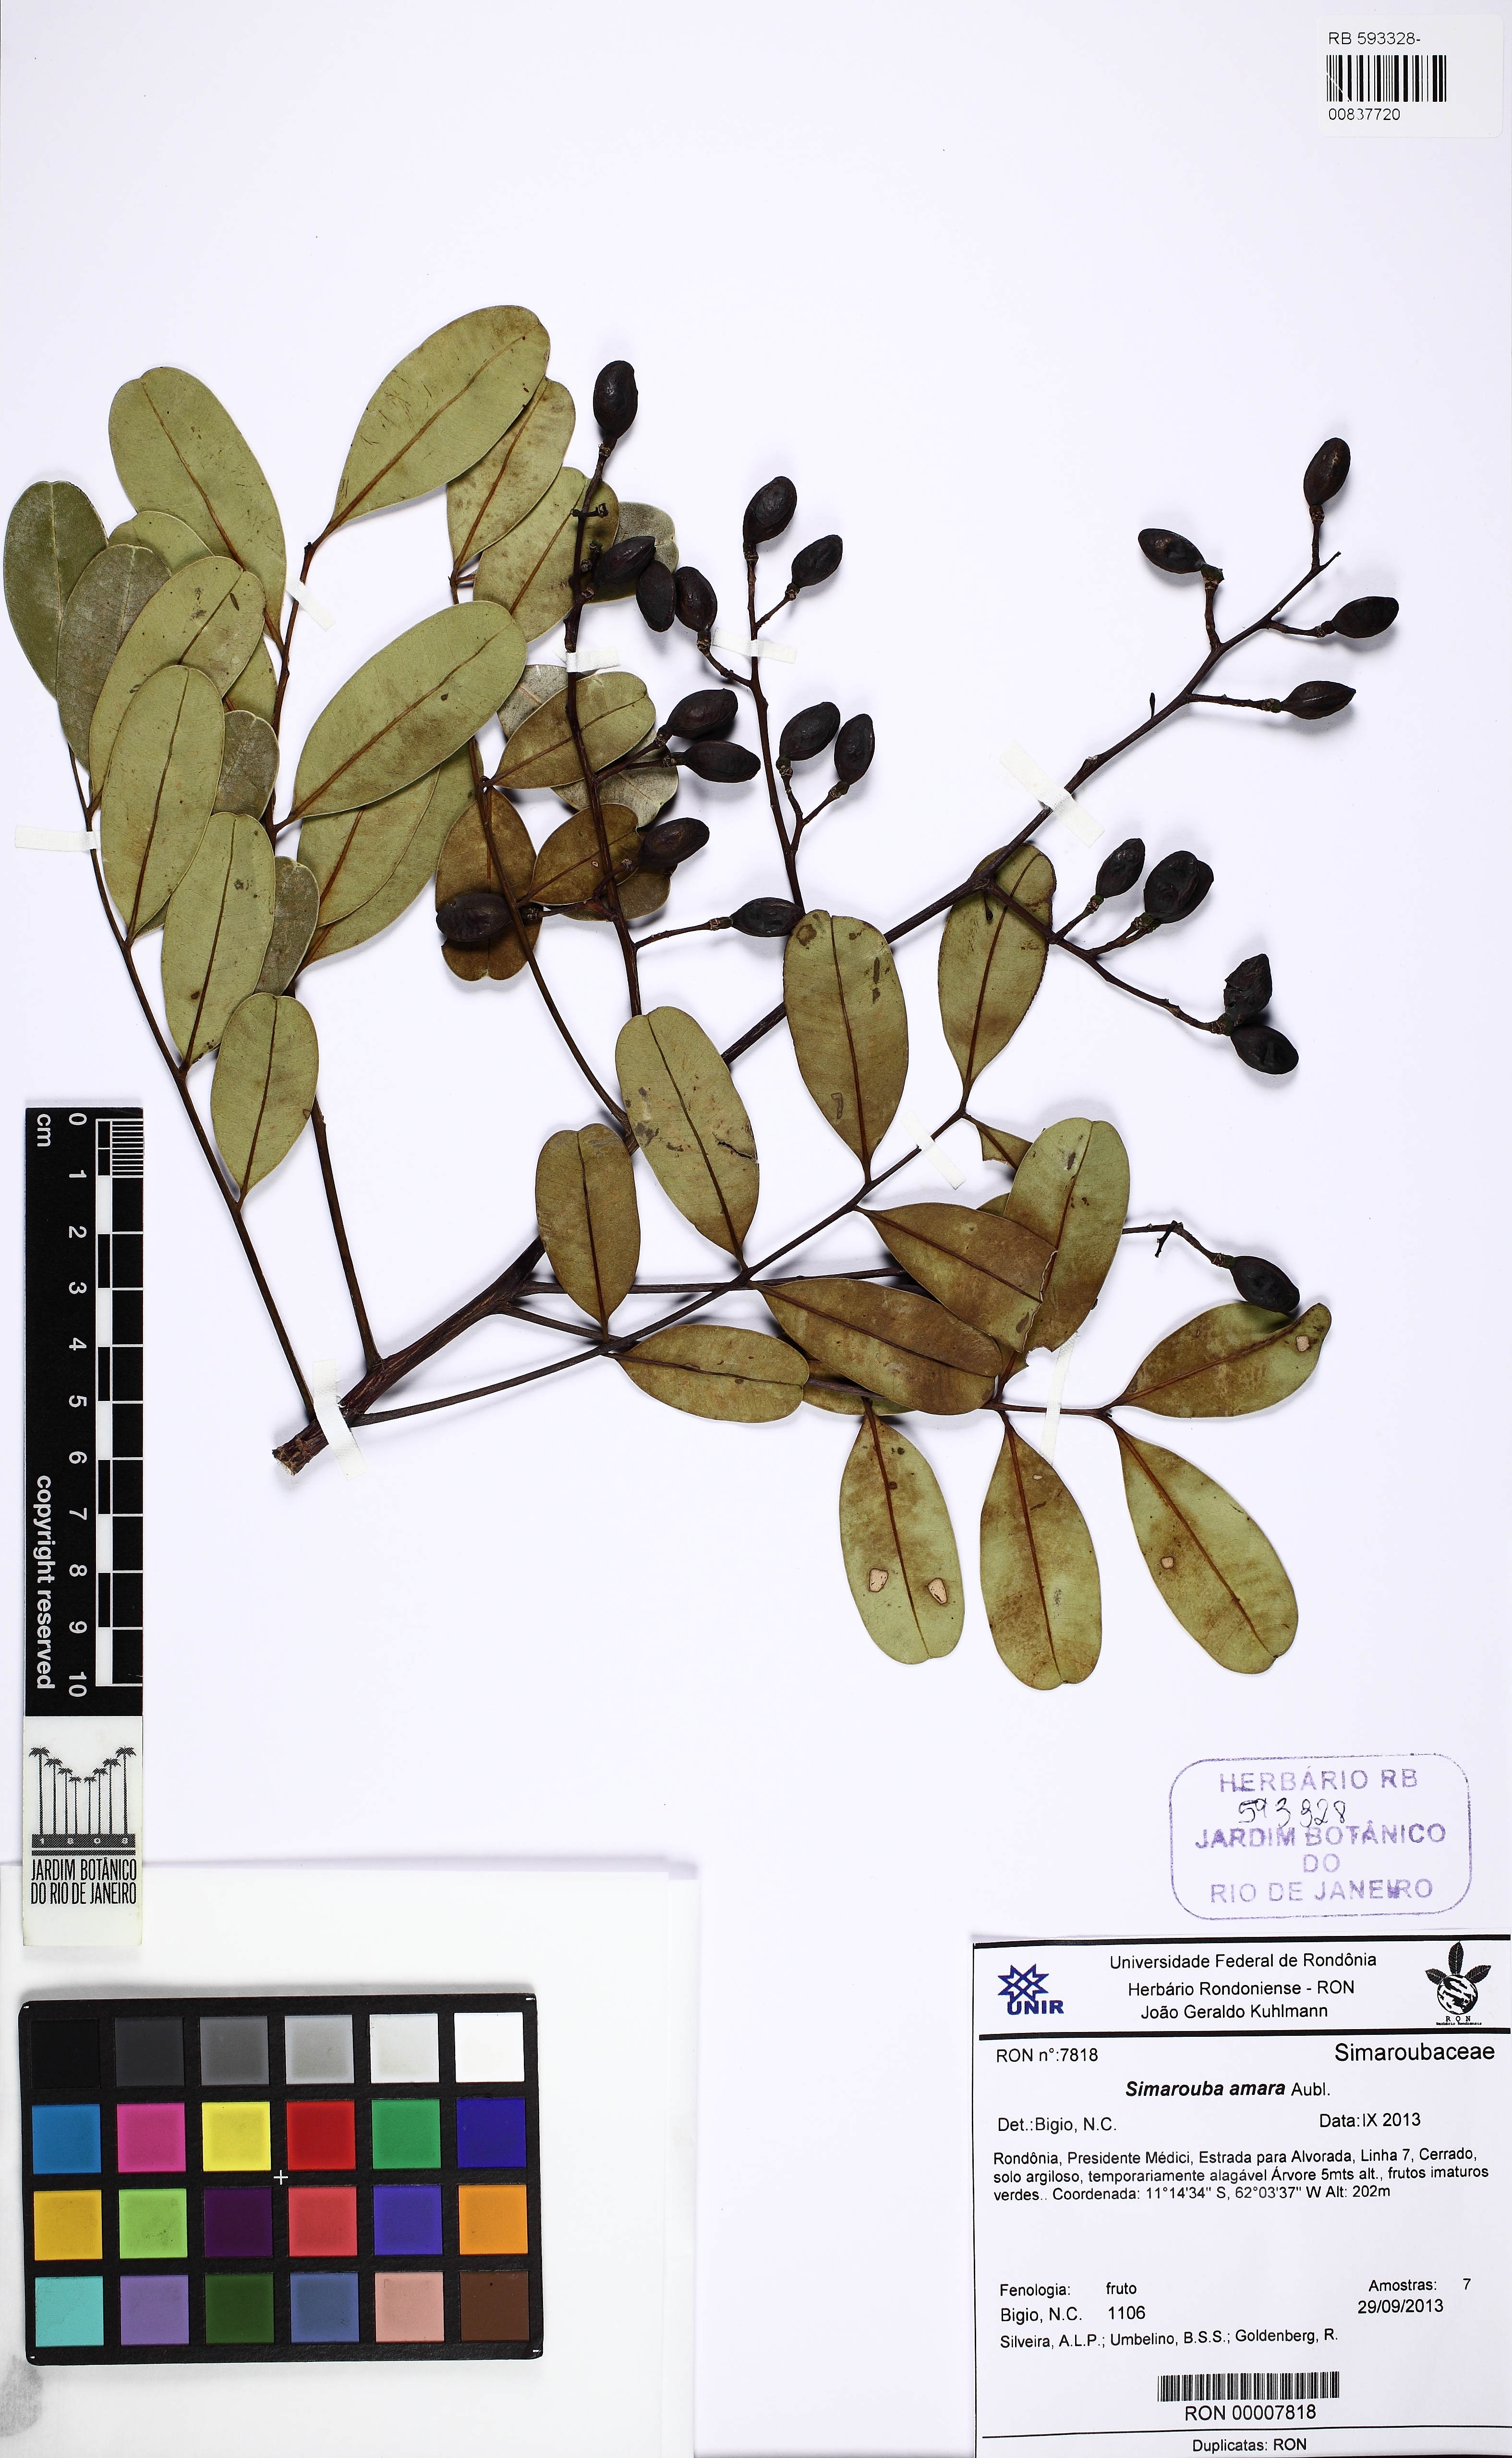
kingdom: Plantae
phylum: Tracheophyta
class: Magnoliopsida
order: Sapindales
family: Simaroubaceae
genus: Simarouba
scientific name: Simarouba amara
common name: Bitterwood
